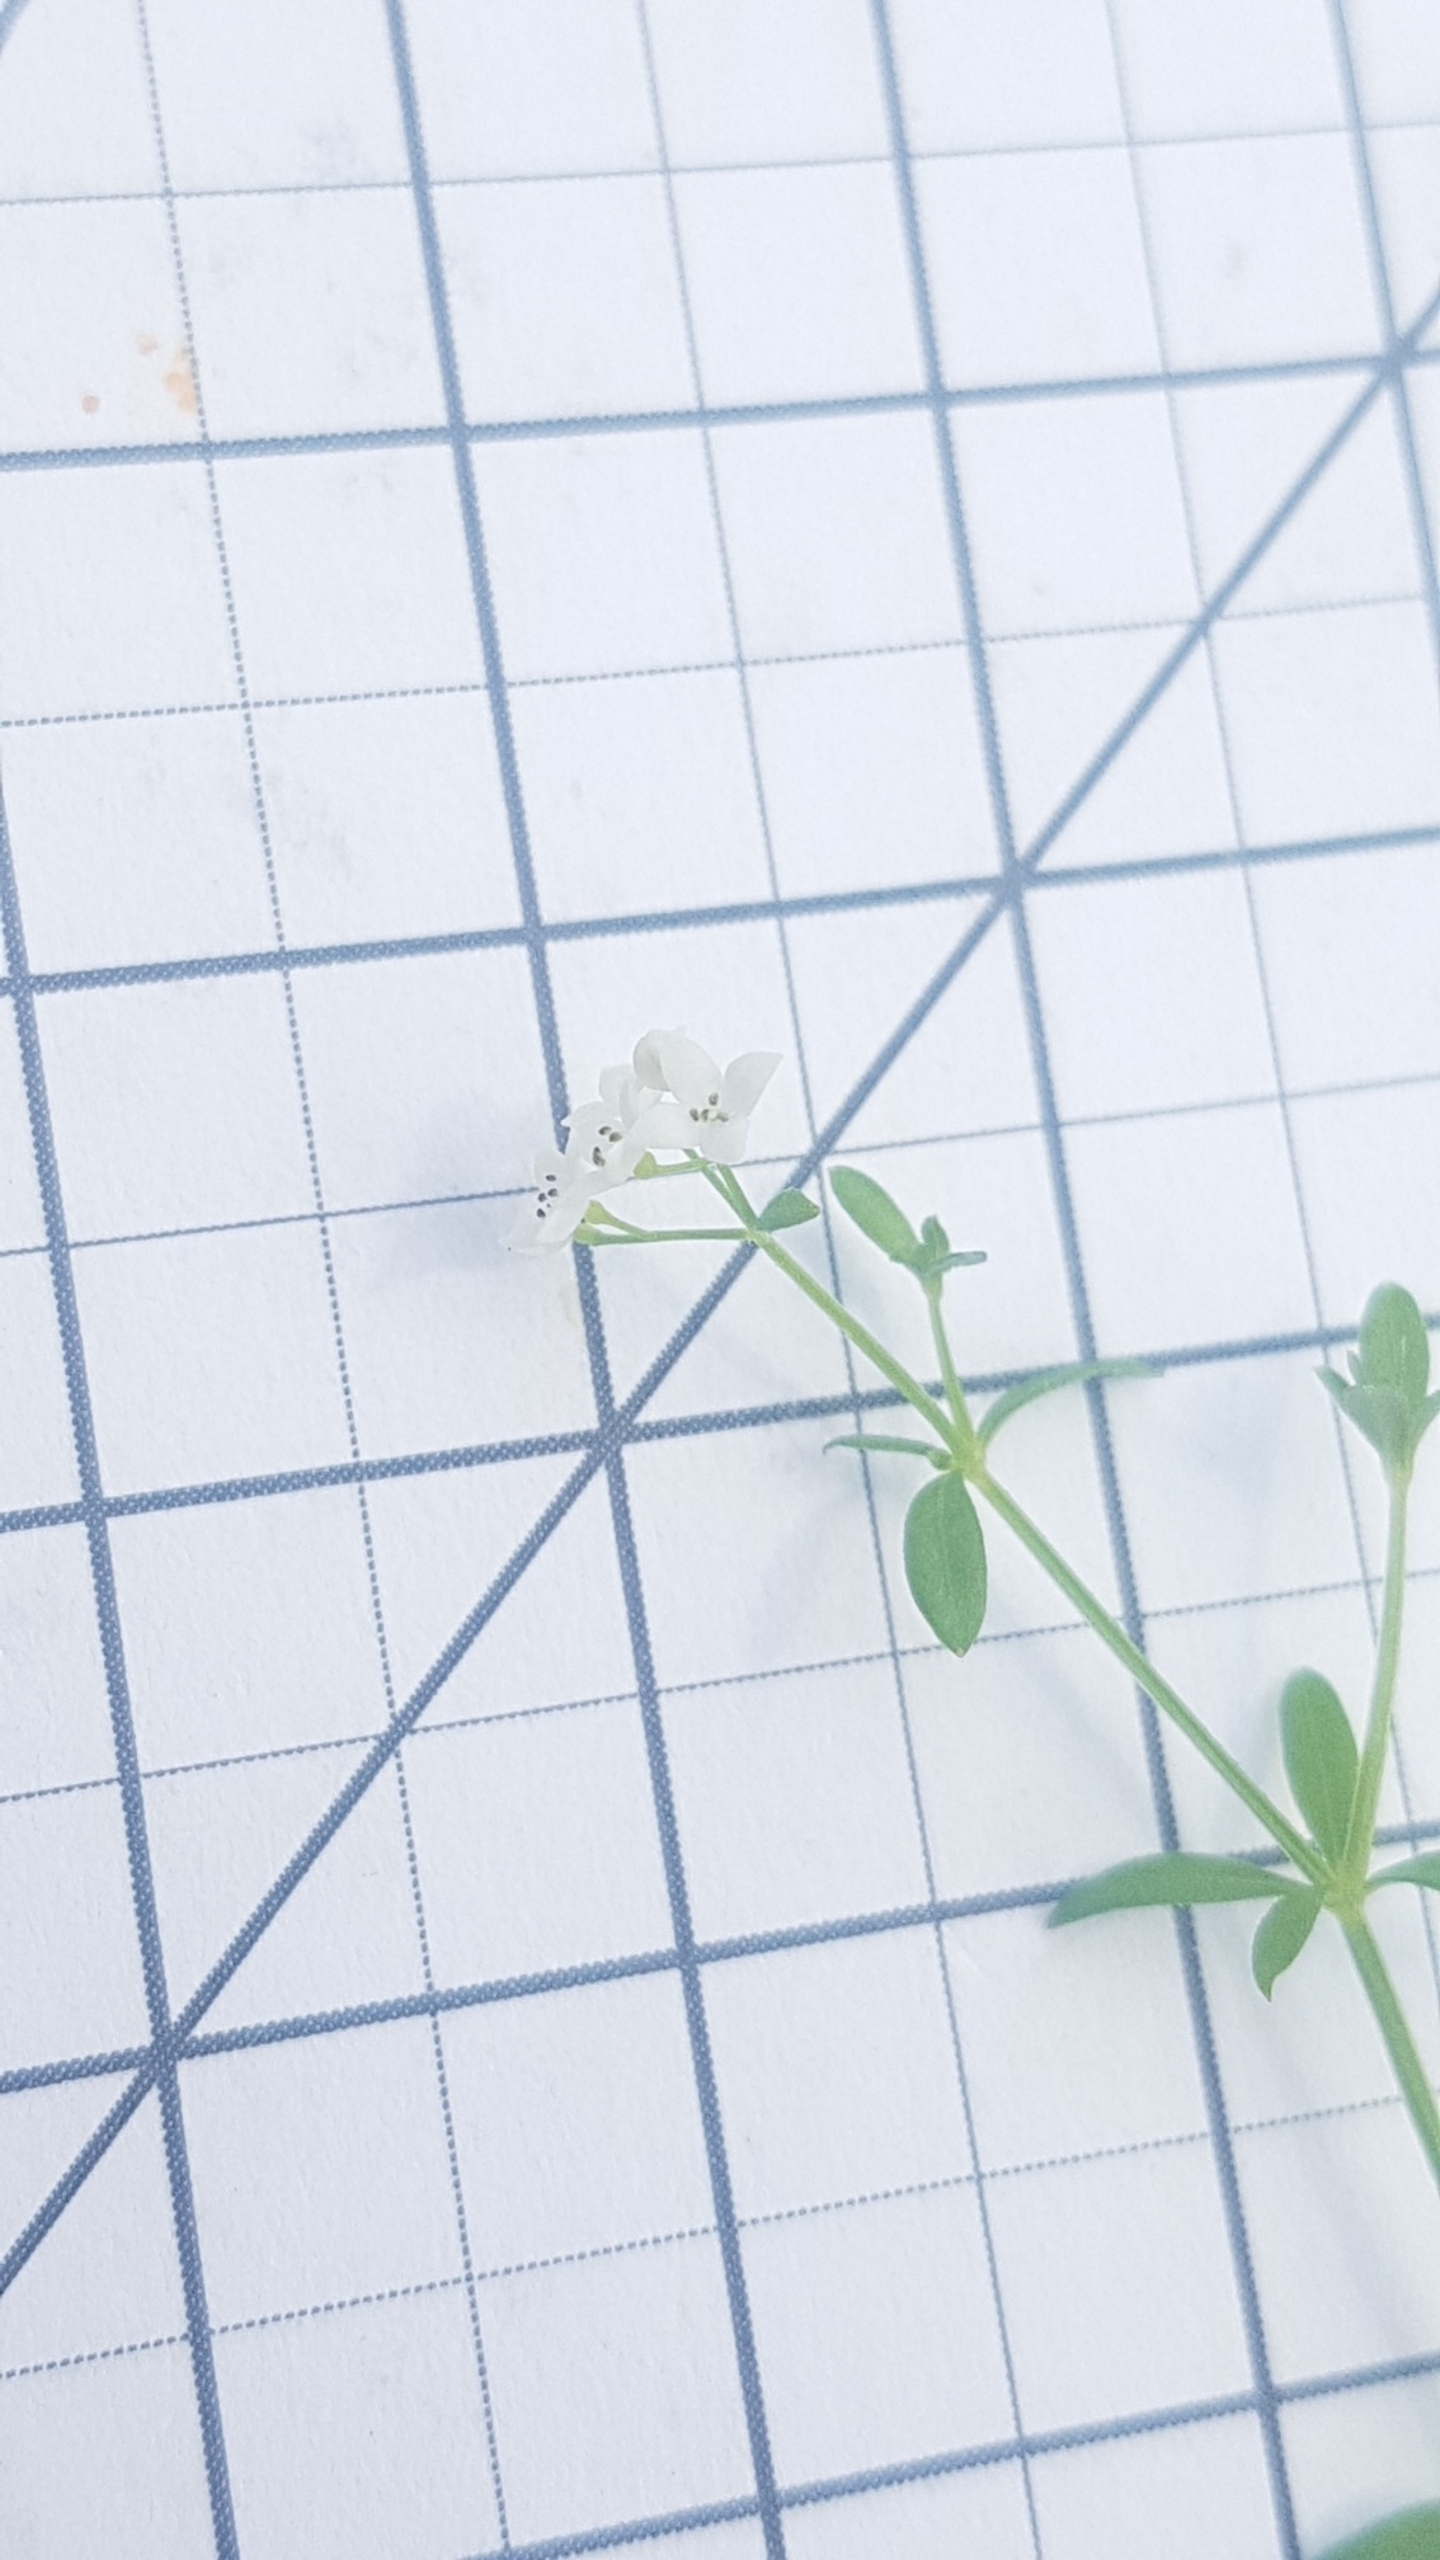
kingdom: Plantae
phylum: Tracheophyta
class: Magnoliopsida
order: Gentianales
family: Rubiaceae
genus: Galium
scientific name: Galium palustre
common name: Kær-snerre
